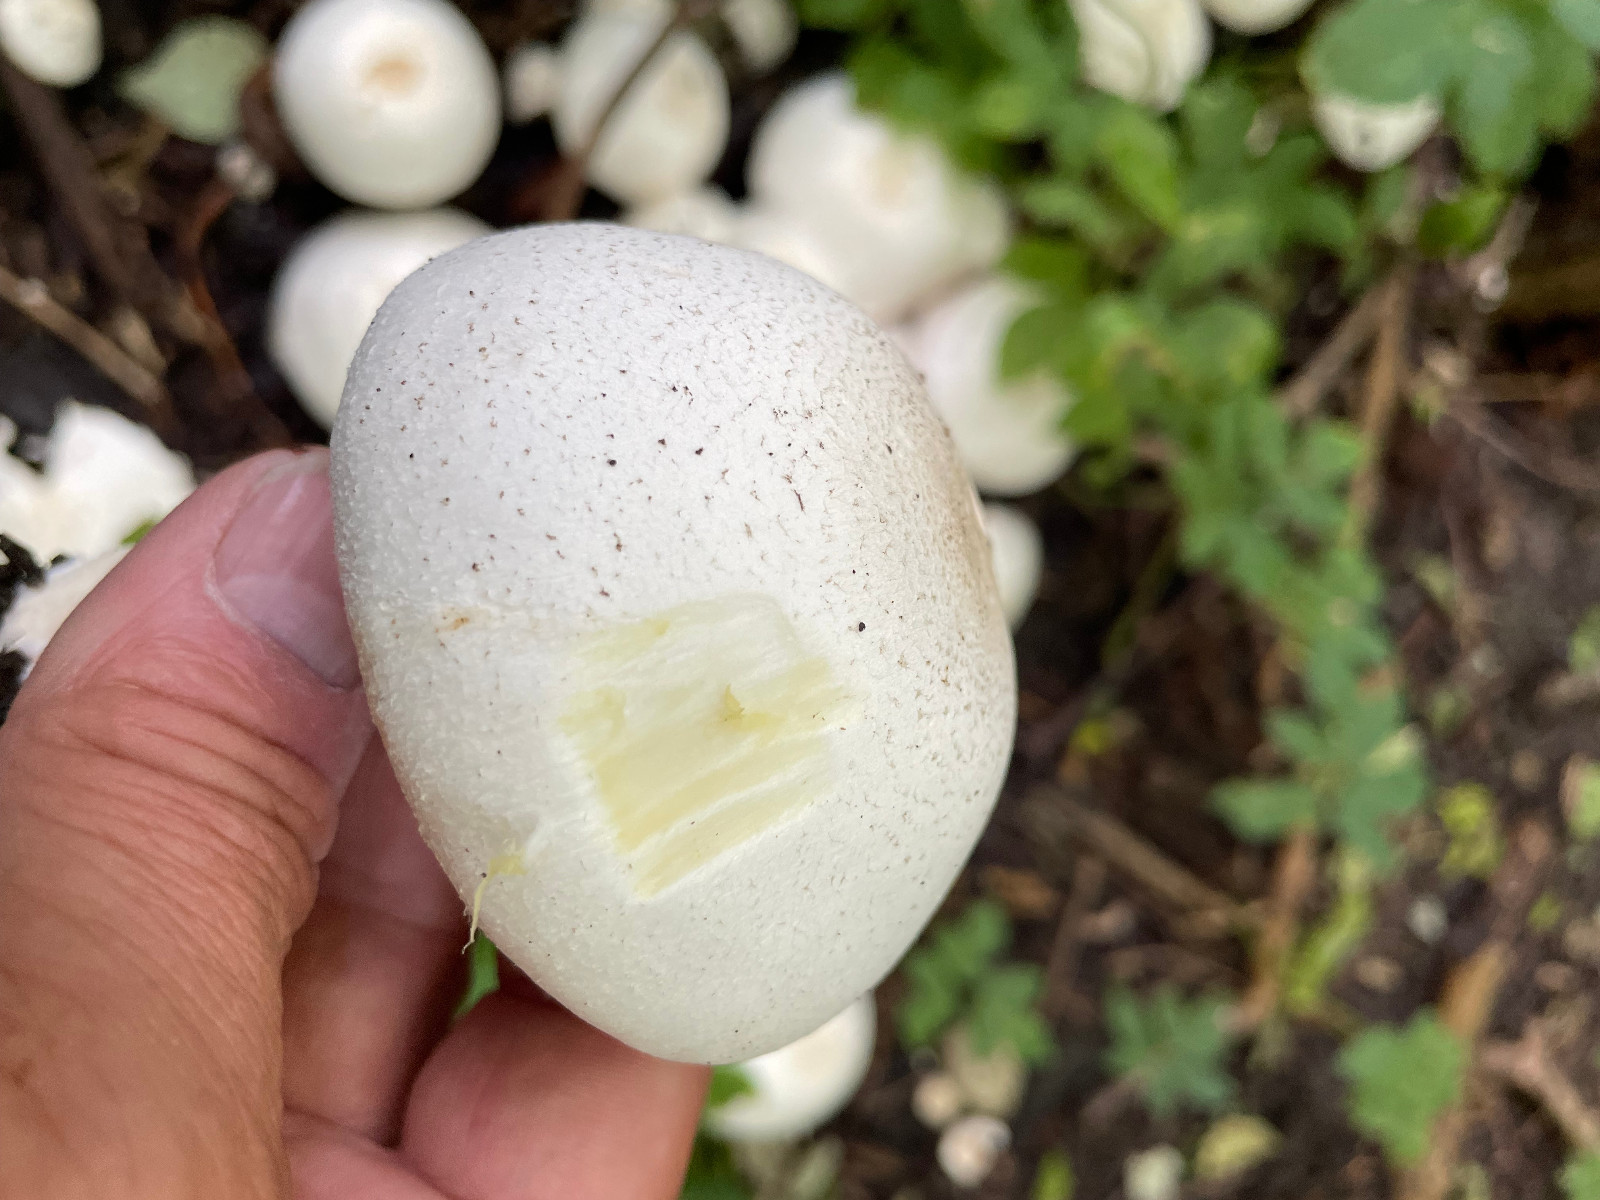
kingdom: Fungi
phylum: Basidiomycota
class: Agaricomycetes
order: Agaricales
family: Agaricaceae
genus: Agaricus
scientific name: Agaricus xanthodermus
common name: karbol-champignon
